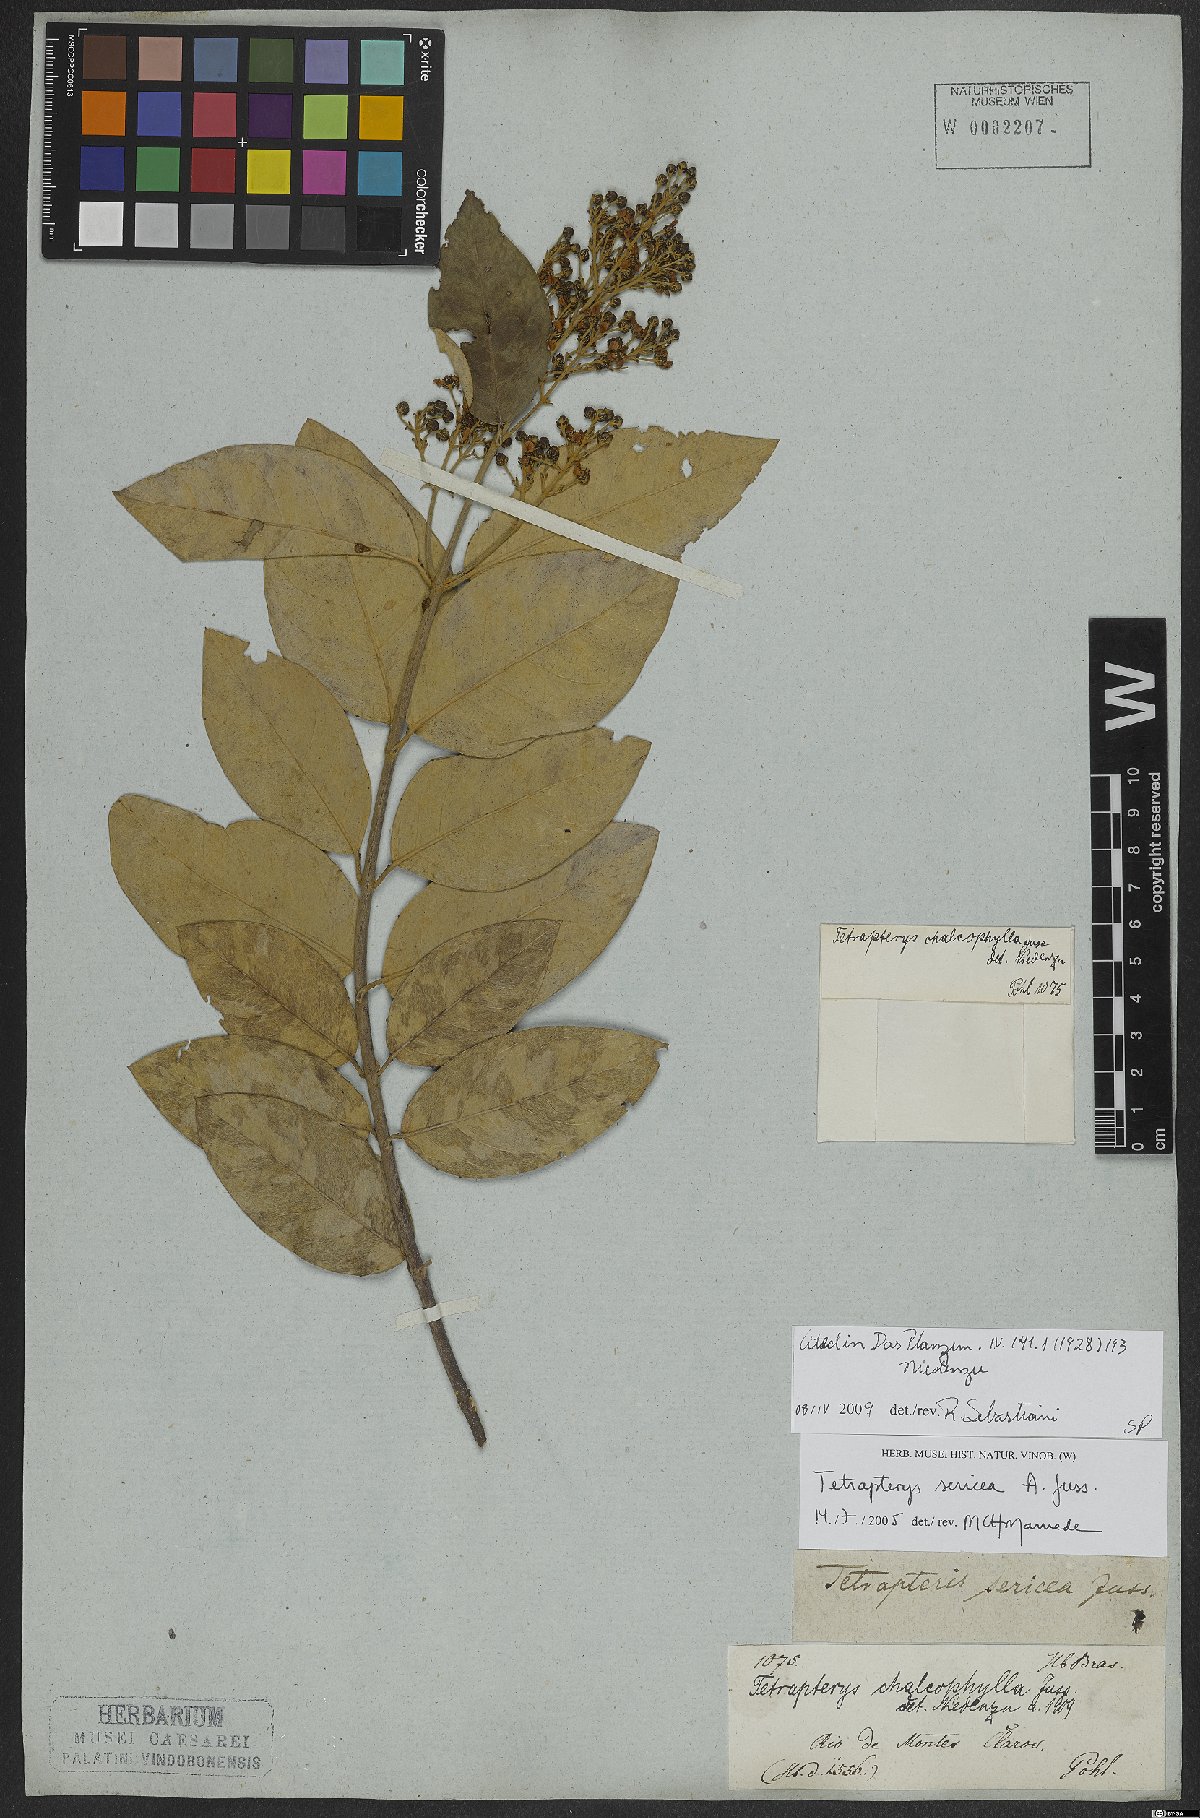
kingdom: Plantae
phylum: Tracheophyta
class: Magnoliopsida
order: Malpighiales
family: Malpighiaceae
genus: Niedenzuella
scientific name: Niedenzuella sericea
